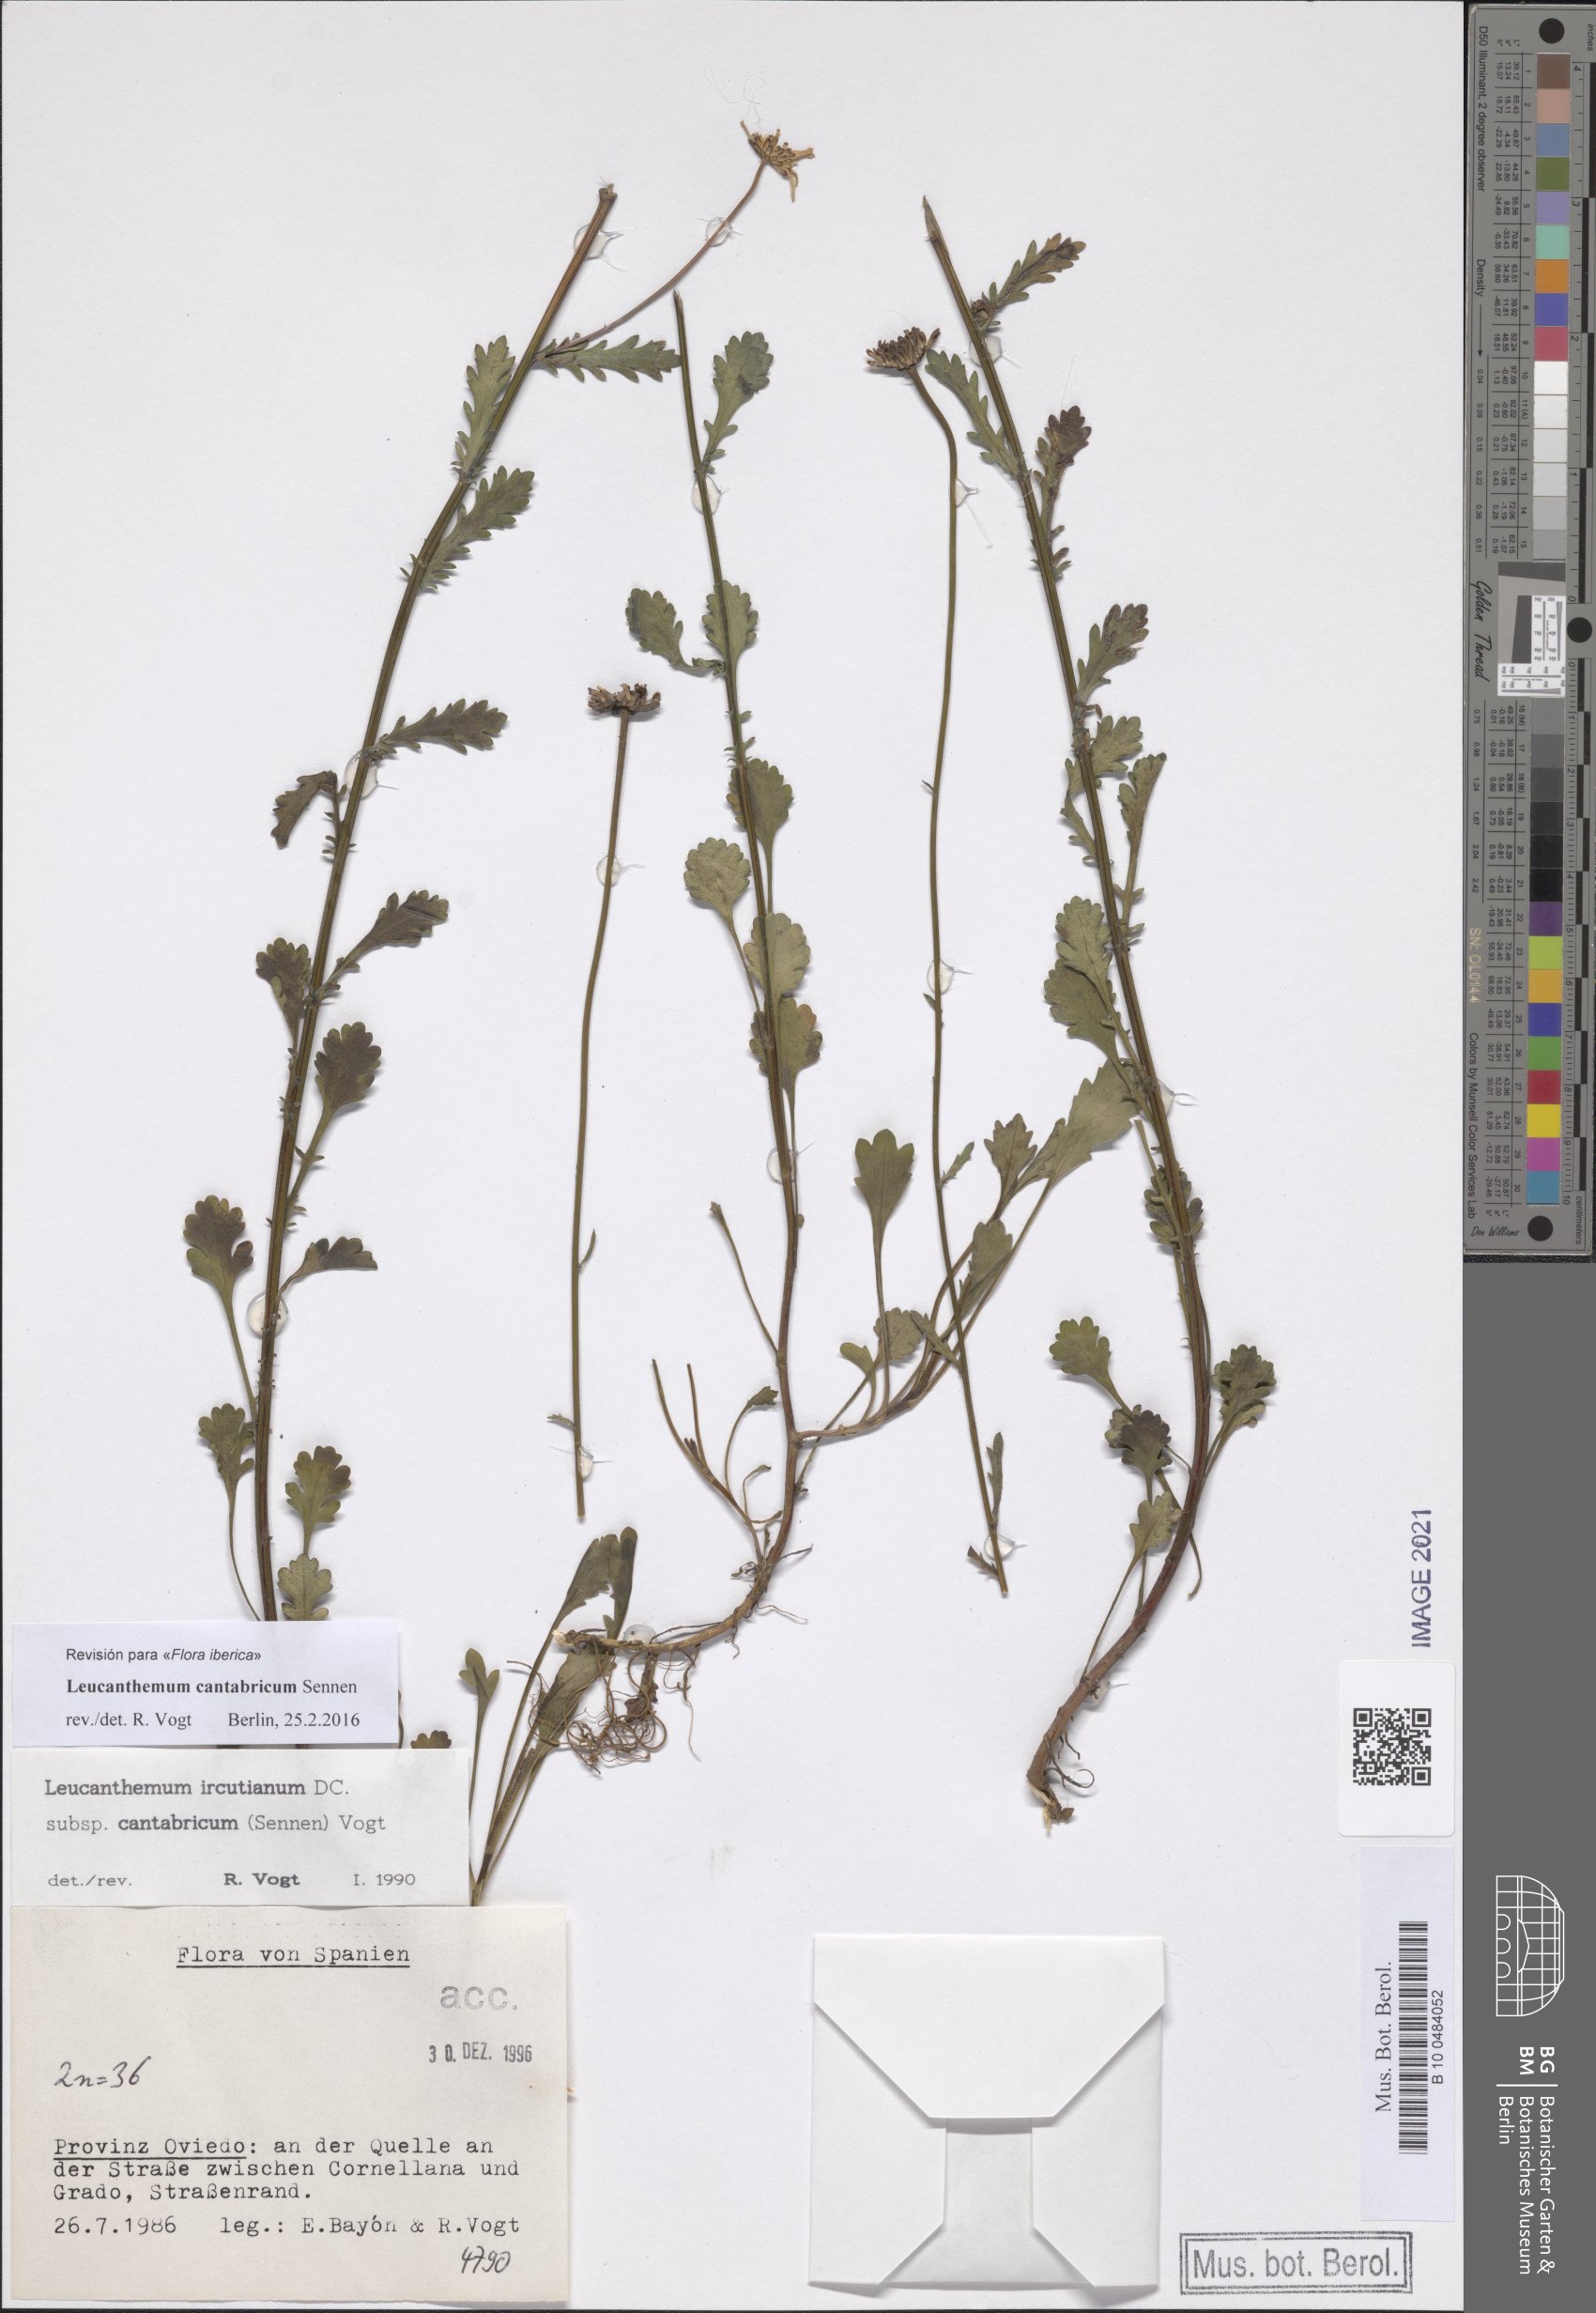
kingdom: Plantae
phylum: Tracheophyta
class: Magnoliopsida
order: Asterales
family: Asteraceae
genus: Leucanthemum
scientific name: Leucanthemum cantabricum
